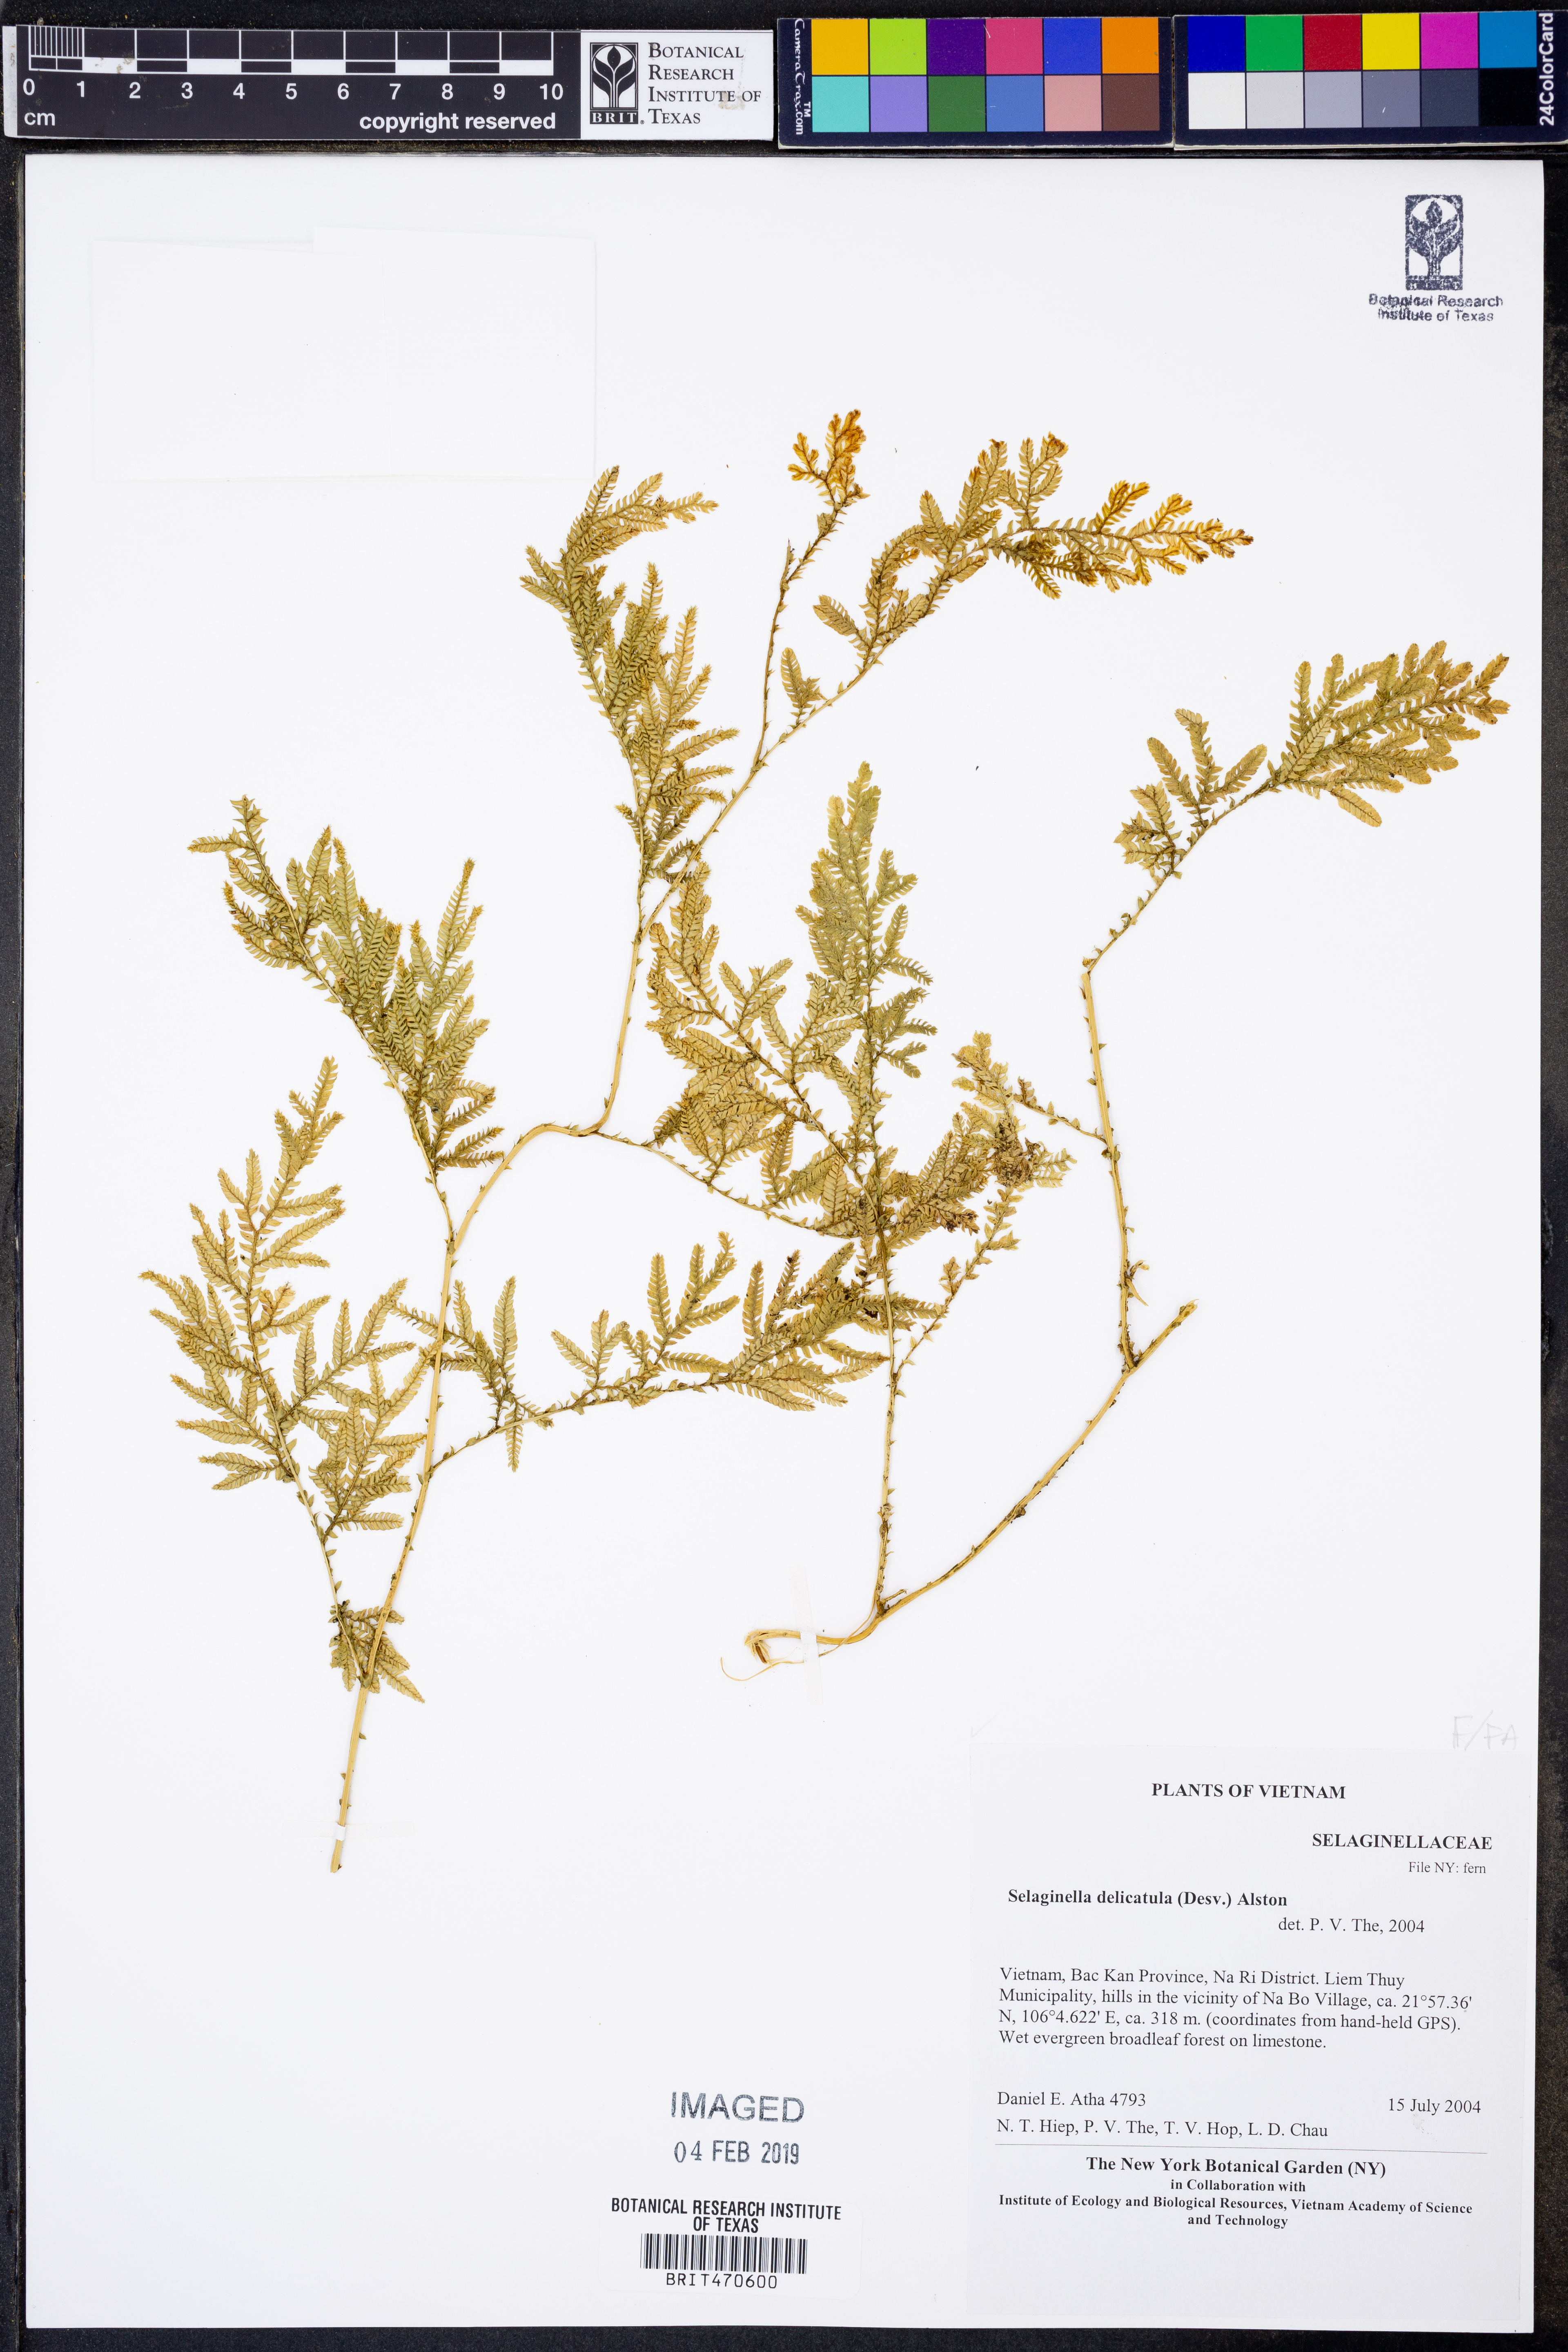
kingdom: Plantae
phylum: Tracheophyta
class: Lycopodiopsida
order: Selaginellales
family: Selaginellaceae
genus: Selaginella
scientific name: Selaginella delicatula
